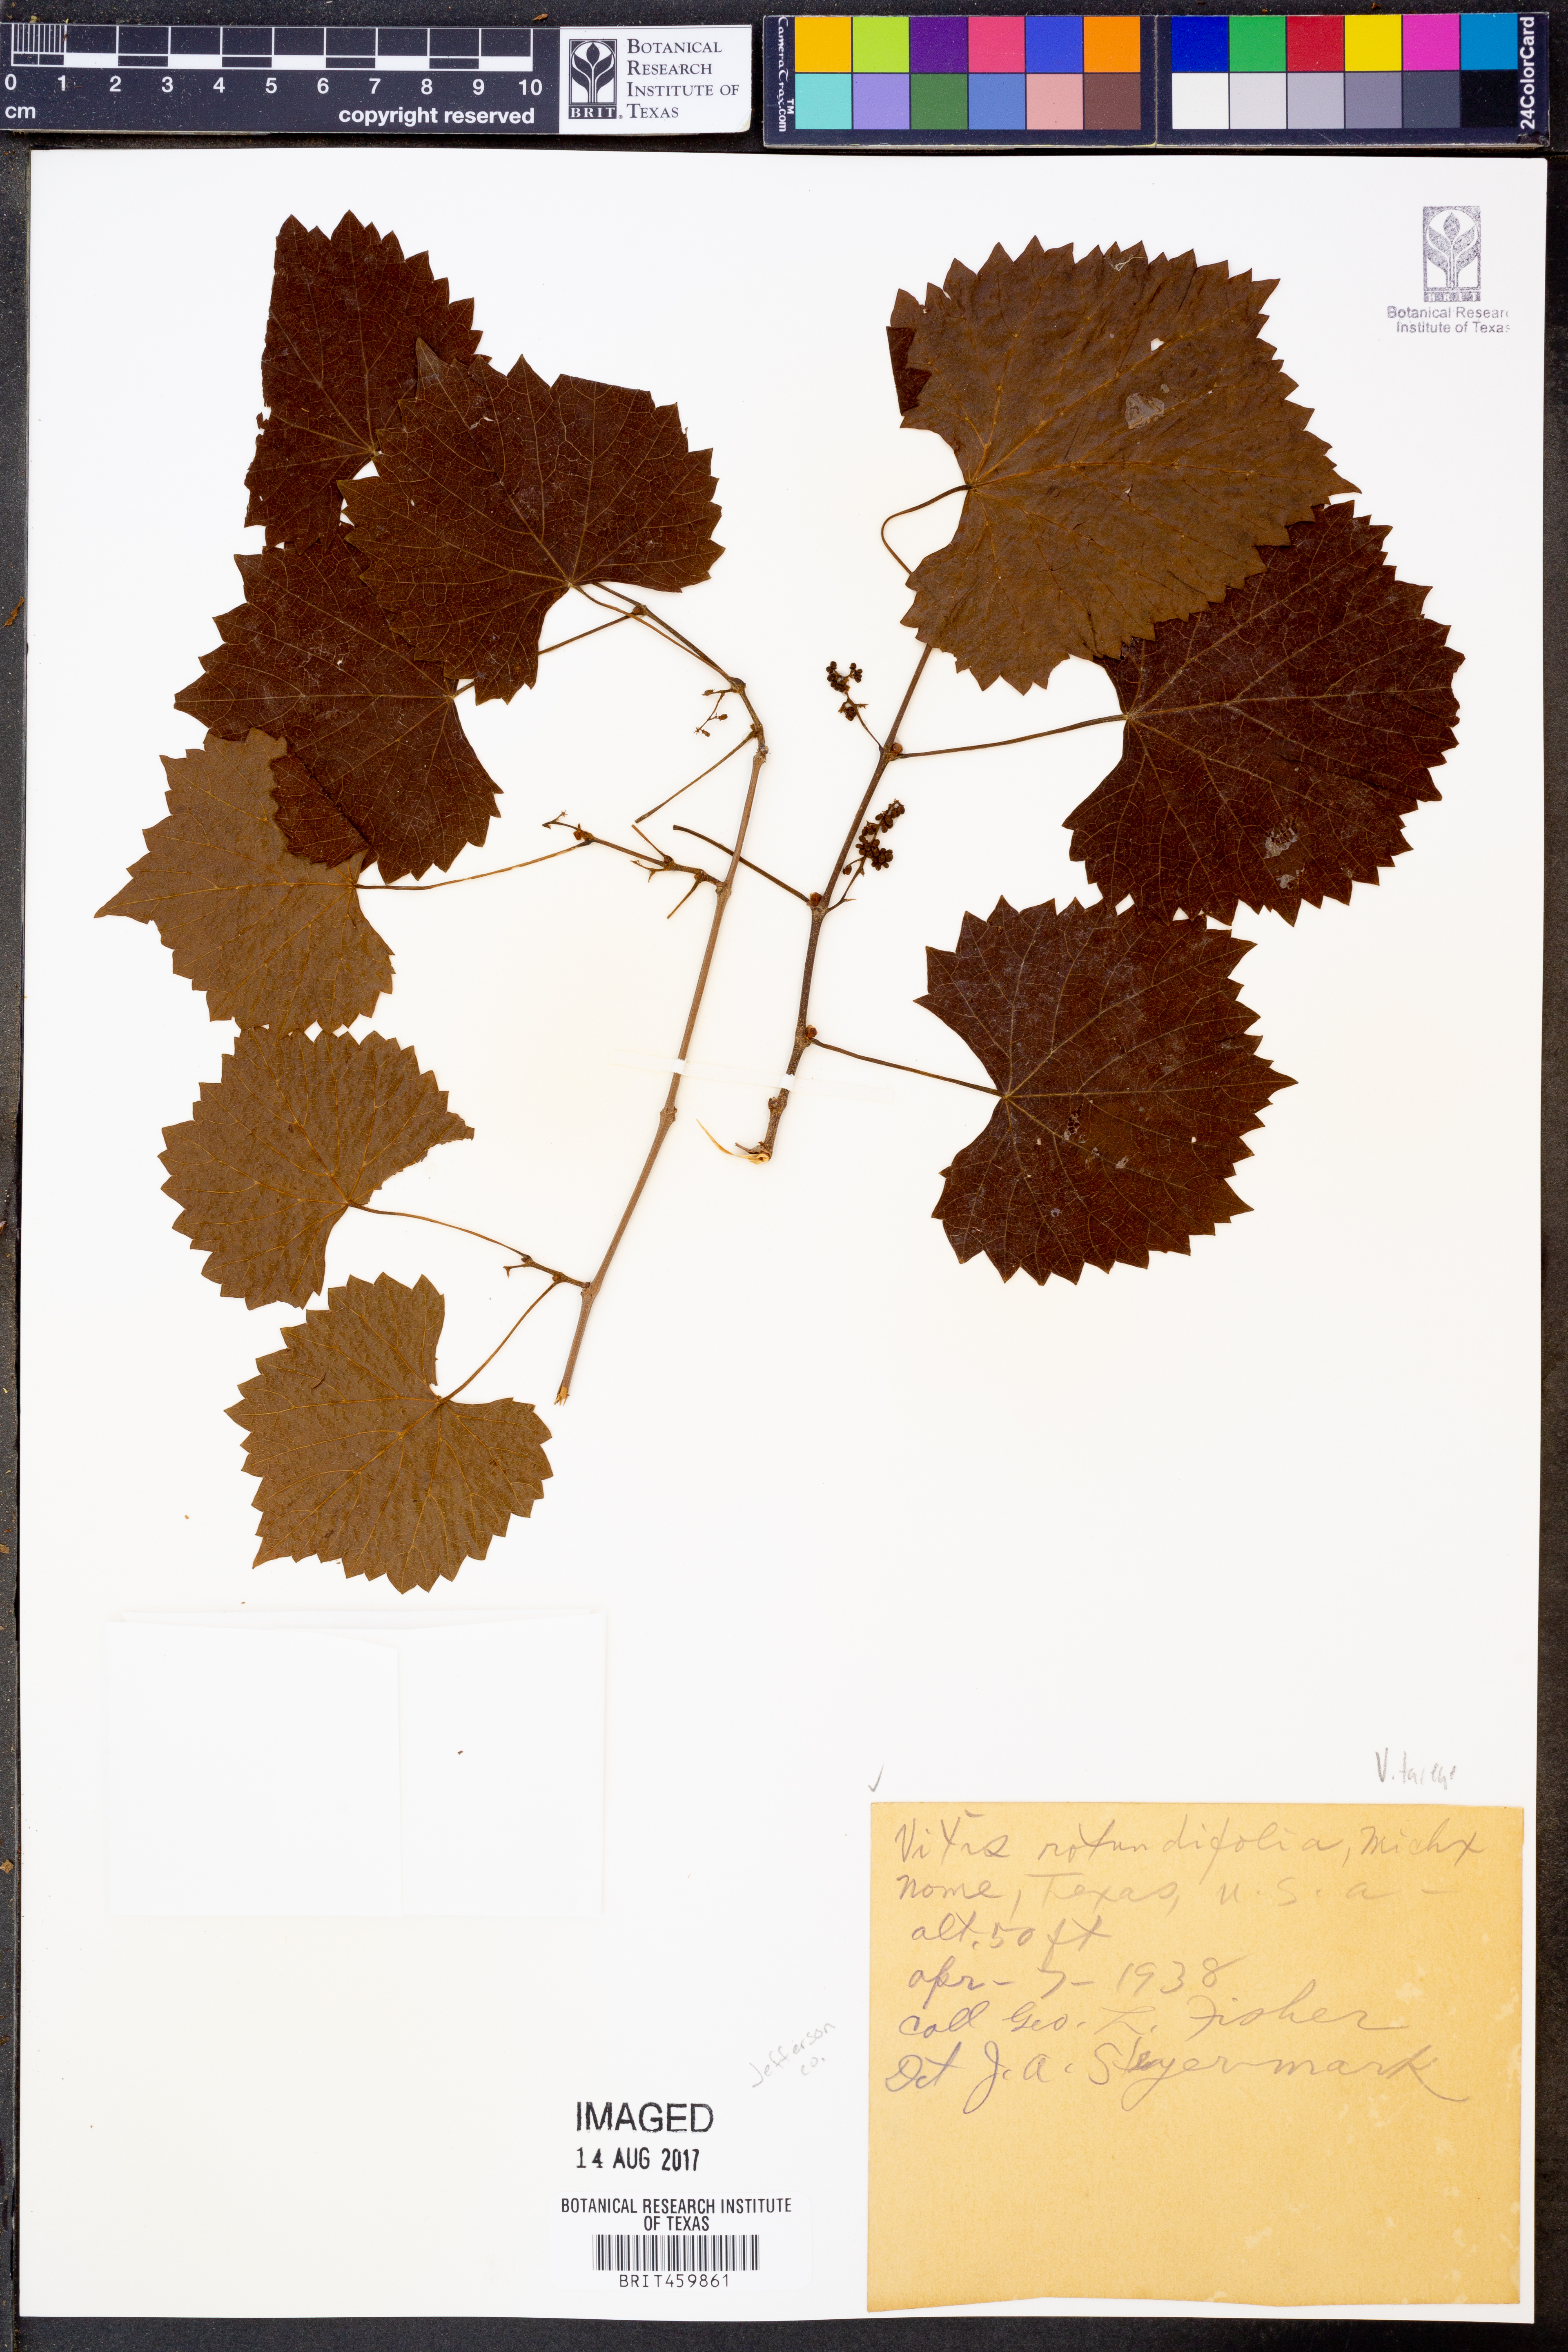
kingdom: Plantae
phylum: Tracheophyta
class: Magnoliopsida
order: Vitales
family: Vitaceae
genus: Vitis
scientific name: Vitis rotundifolia
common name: Muscadine grape
